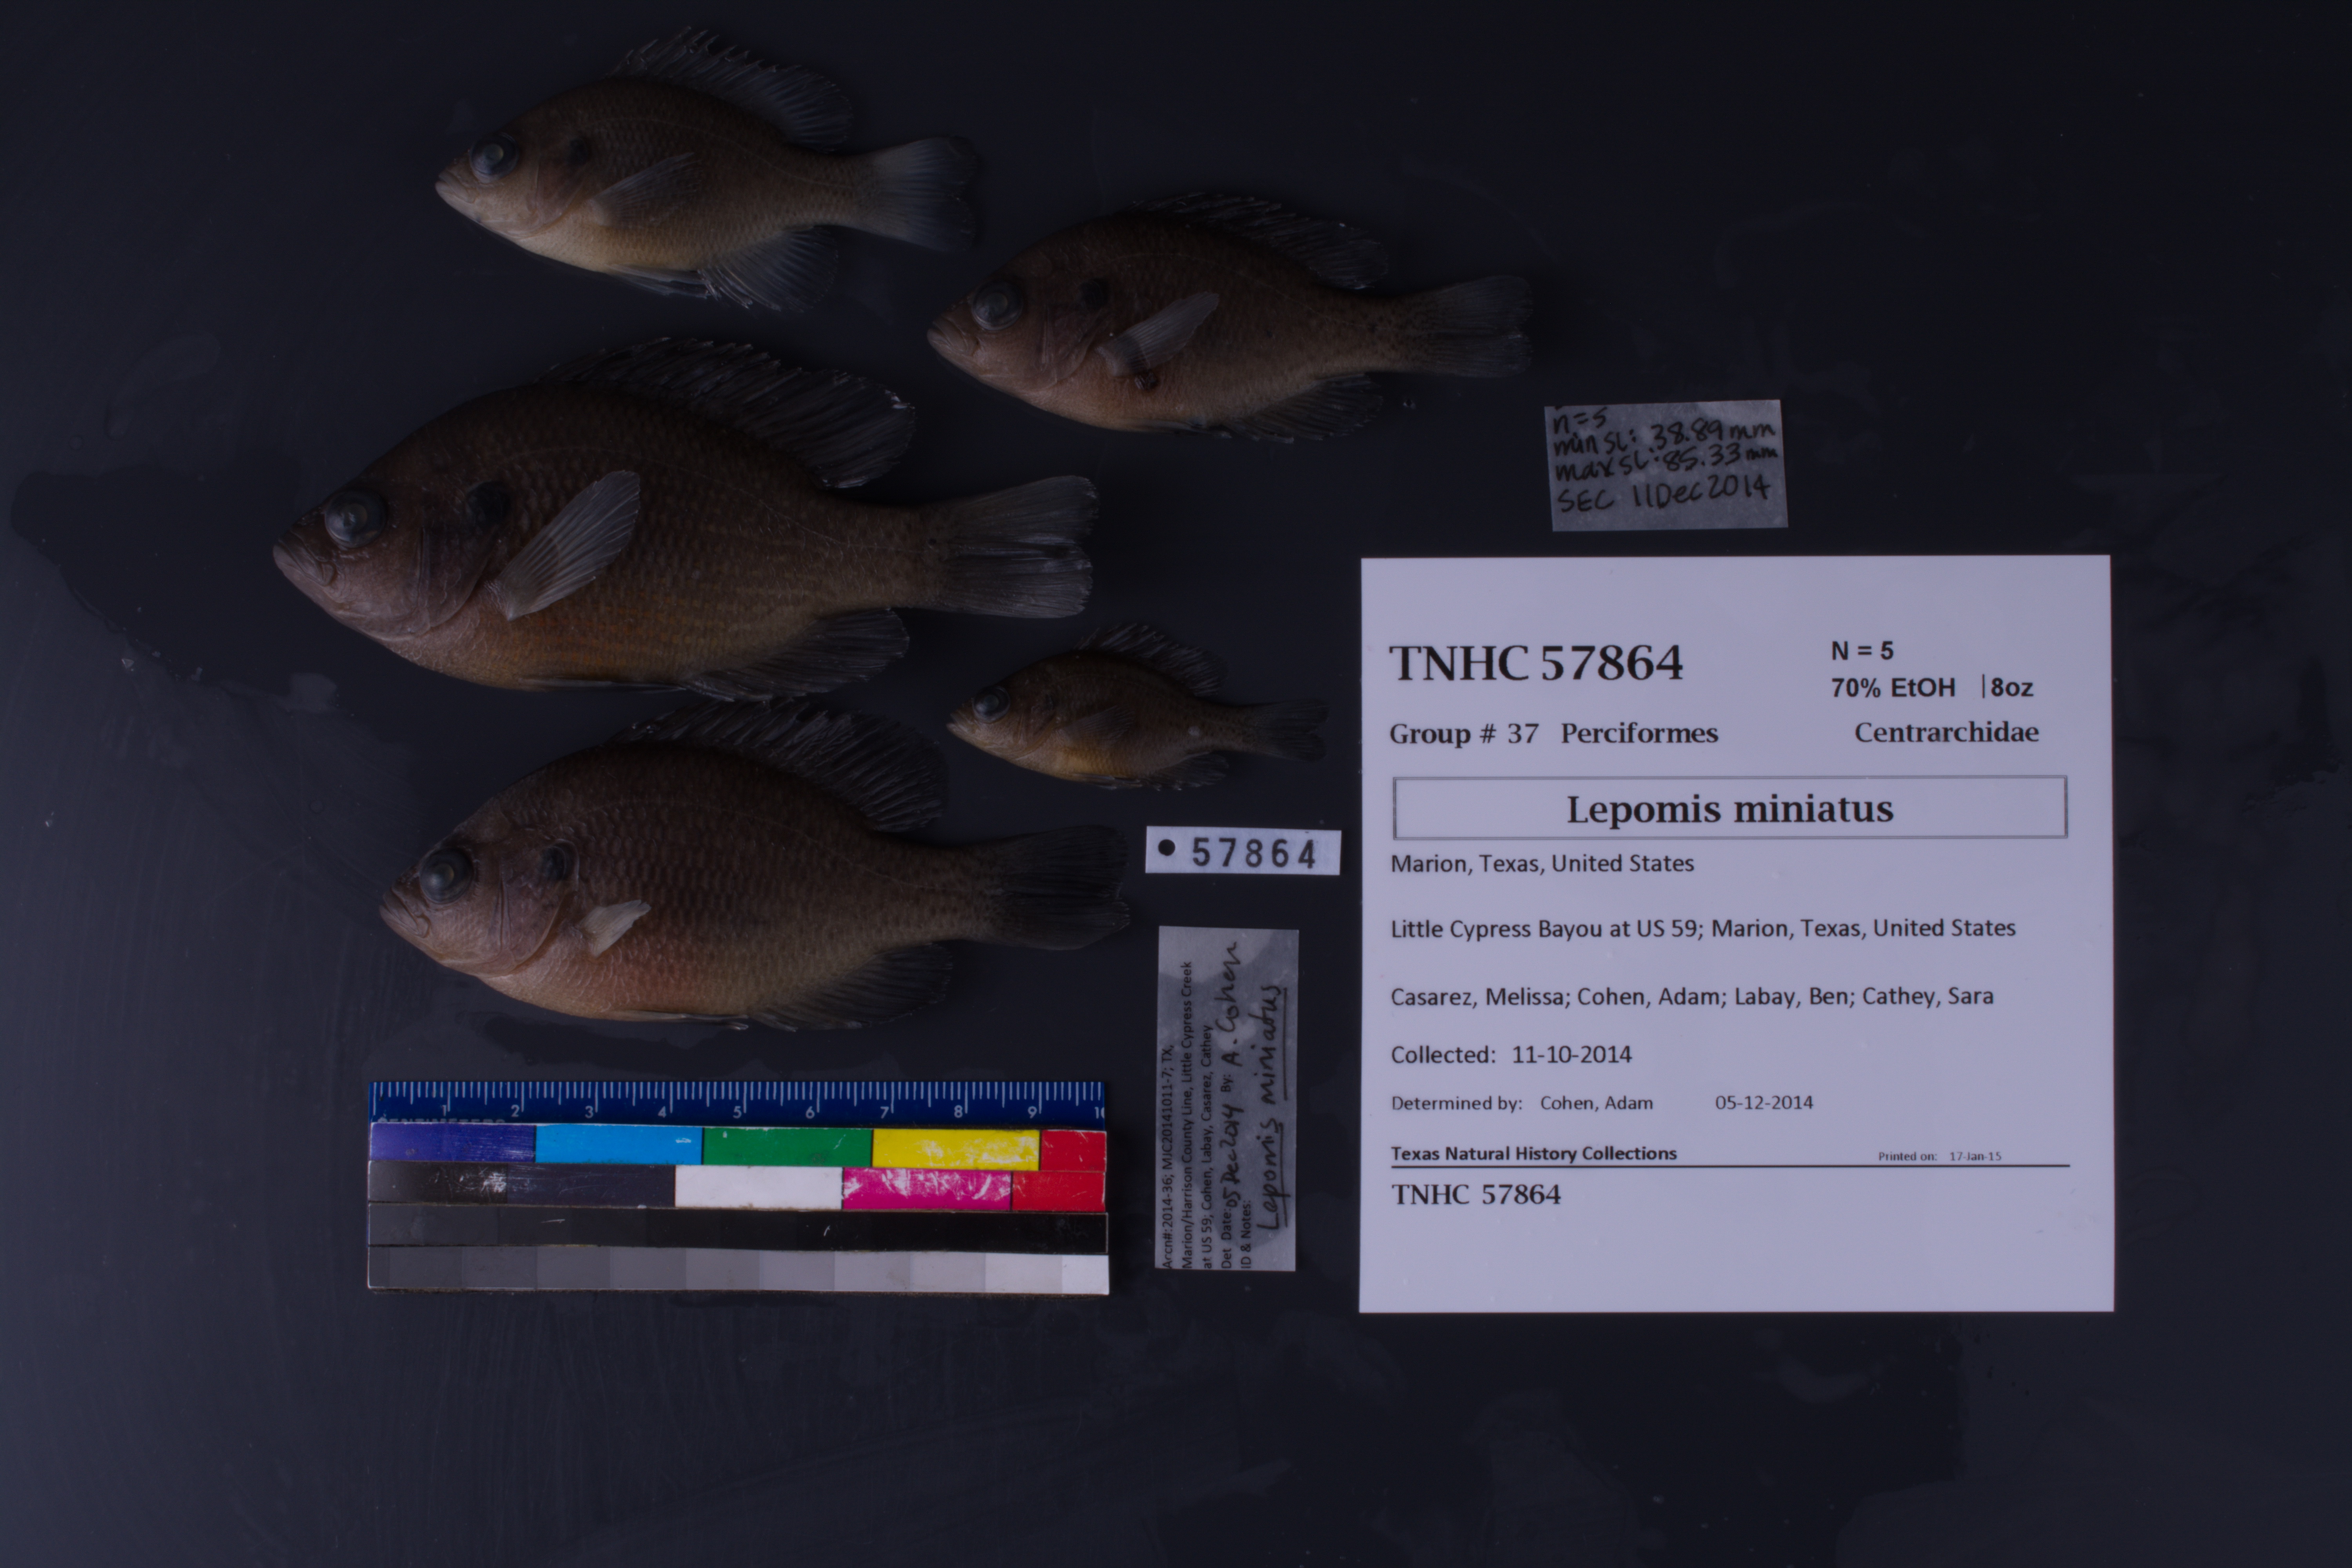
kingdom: Animalia
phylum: Chordata
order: Perciformes
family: Centrarchidae
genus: Lepomis
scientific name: Lepomis miniatus
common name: Redspotted sunfish
